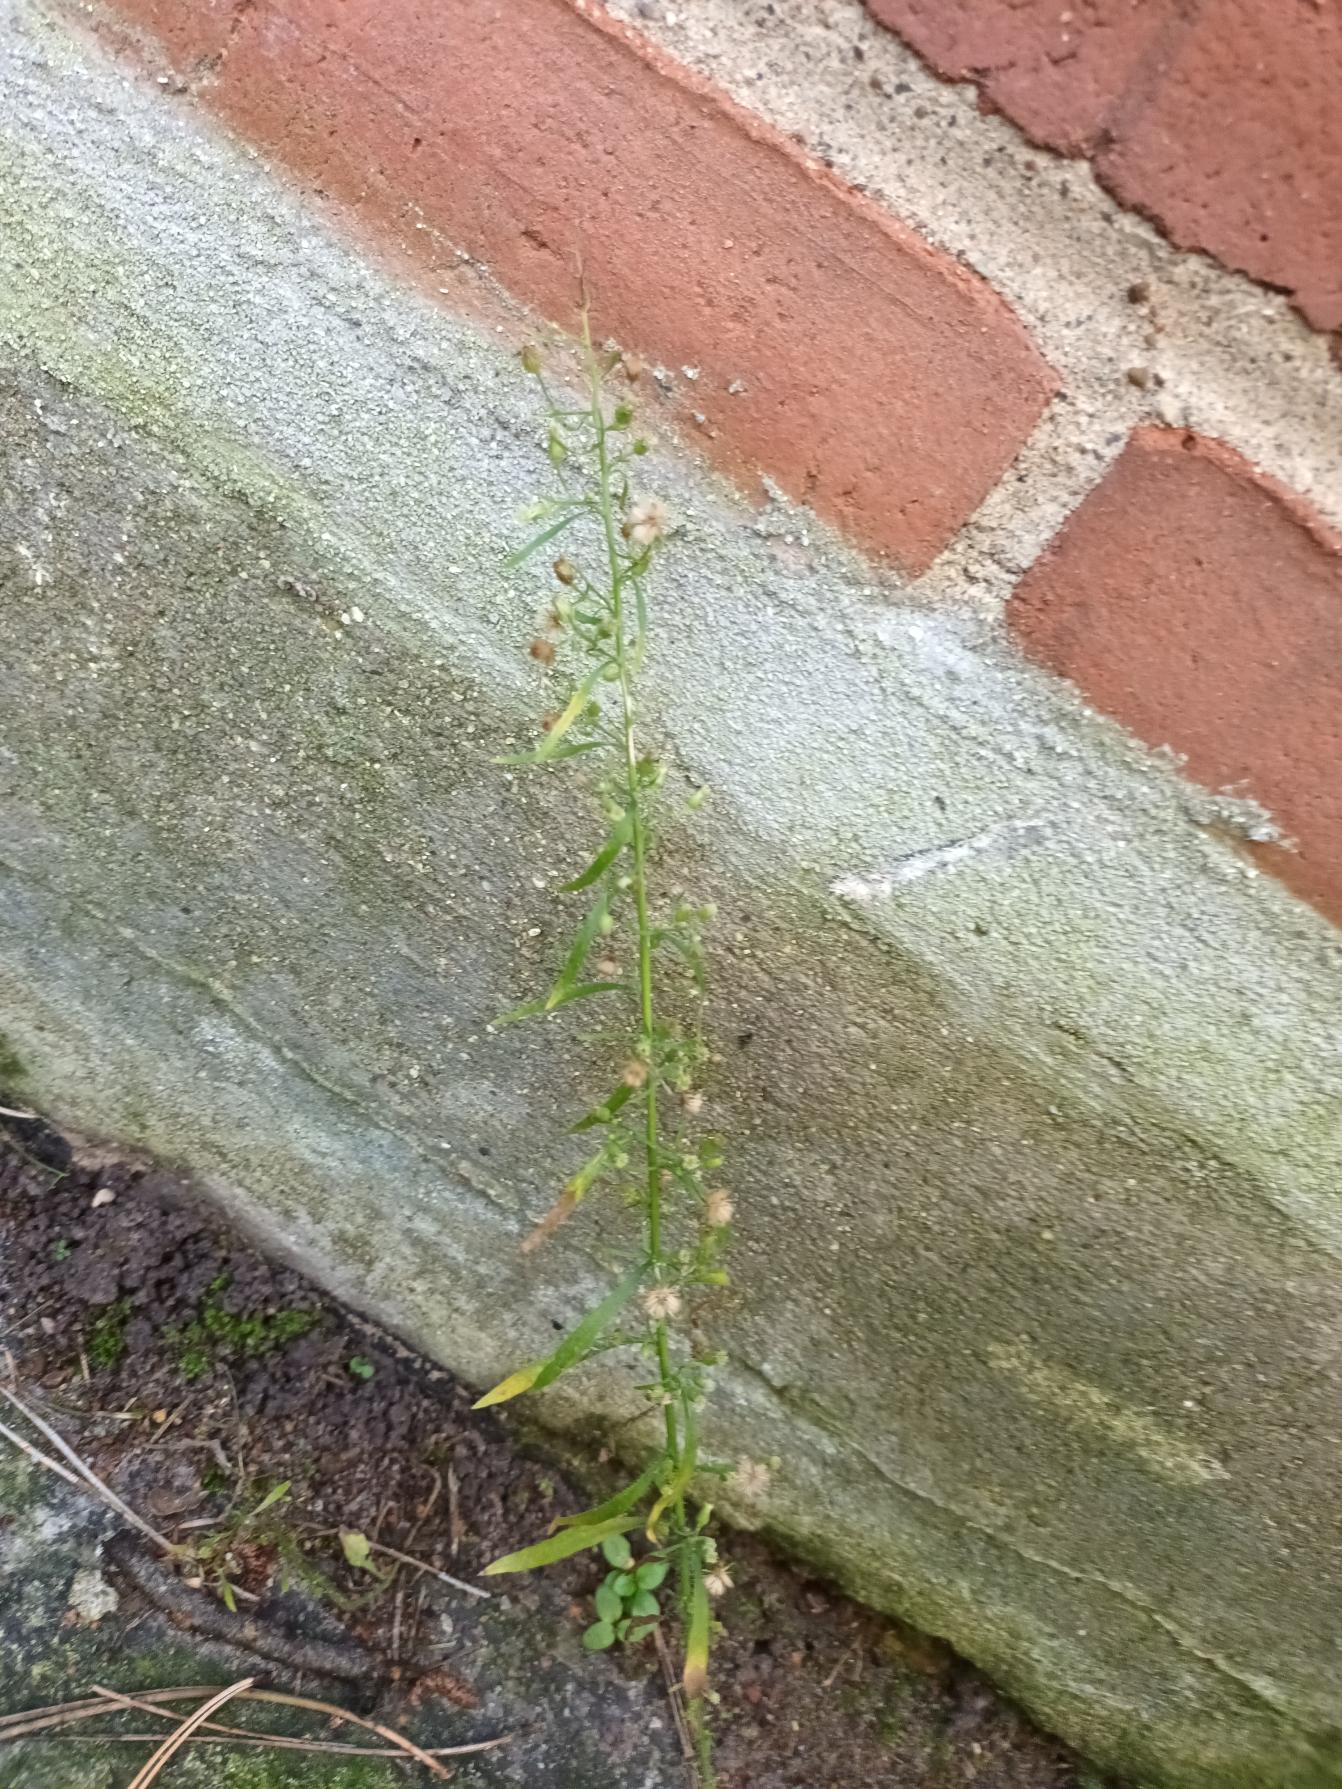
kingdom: Plantae
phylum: Tracheophyta
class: Magnoliopsida
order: Asterales
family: Asteraceae
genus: Erigeron
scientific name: Erigeron canadensis
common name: Kanadisk bakkestjerne
